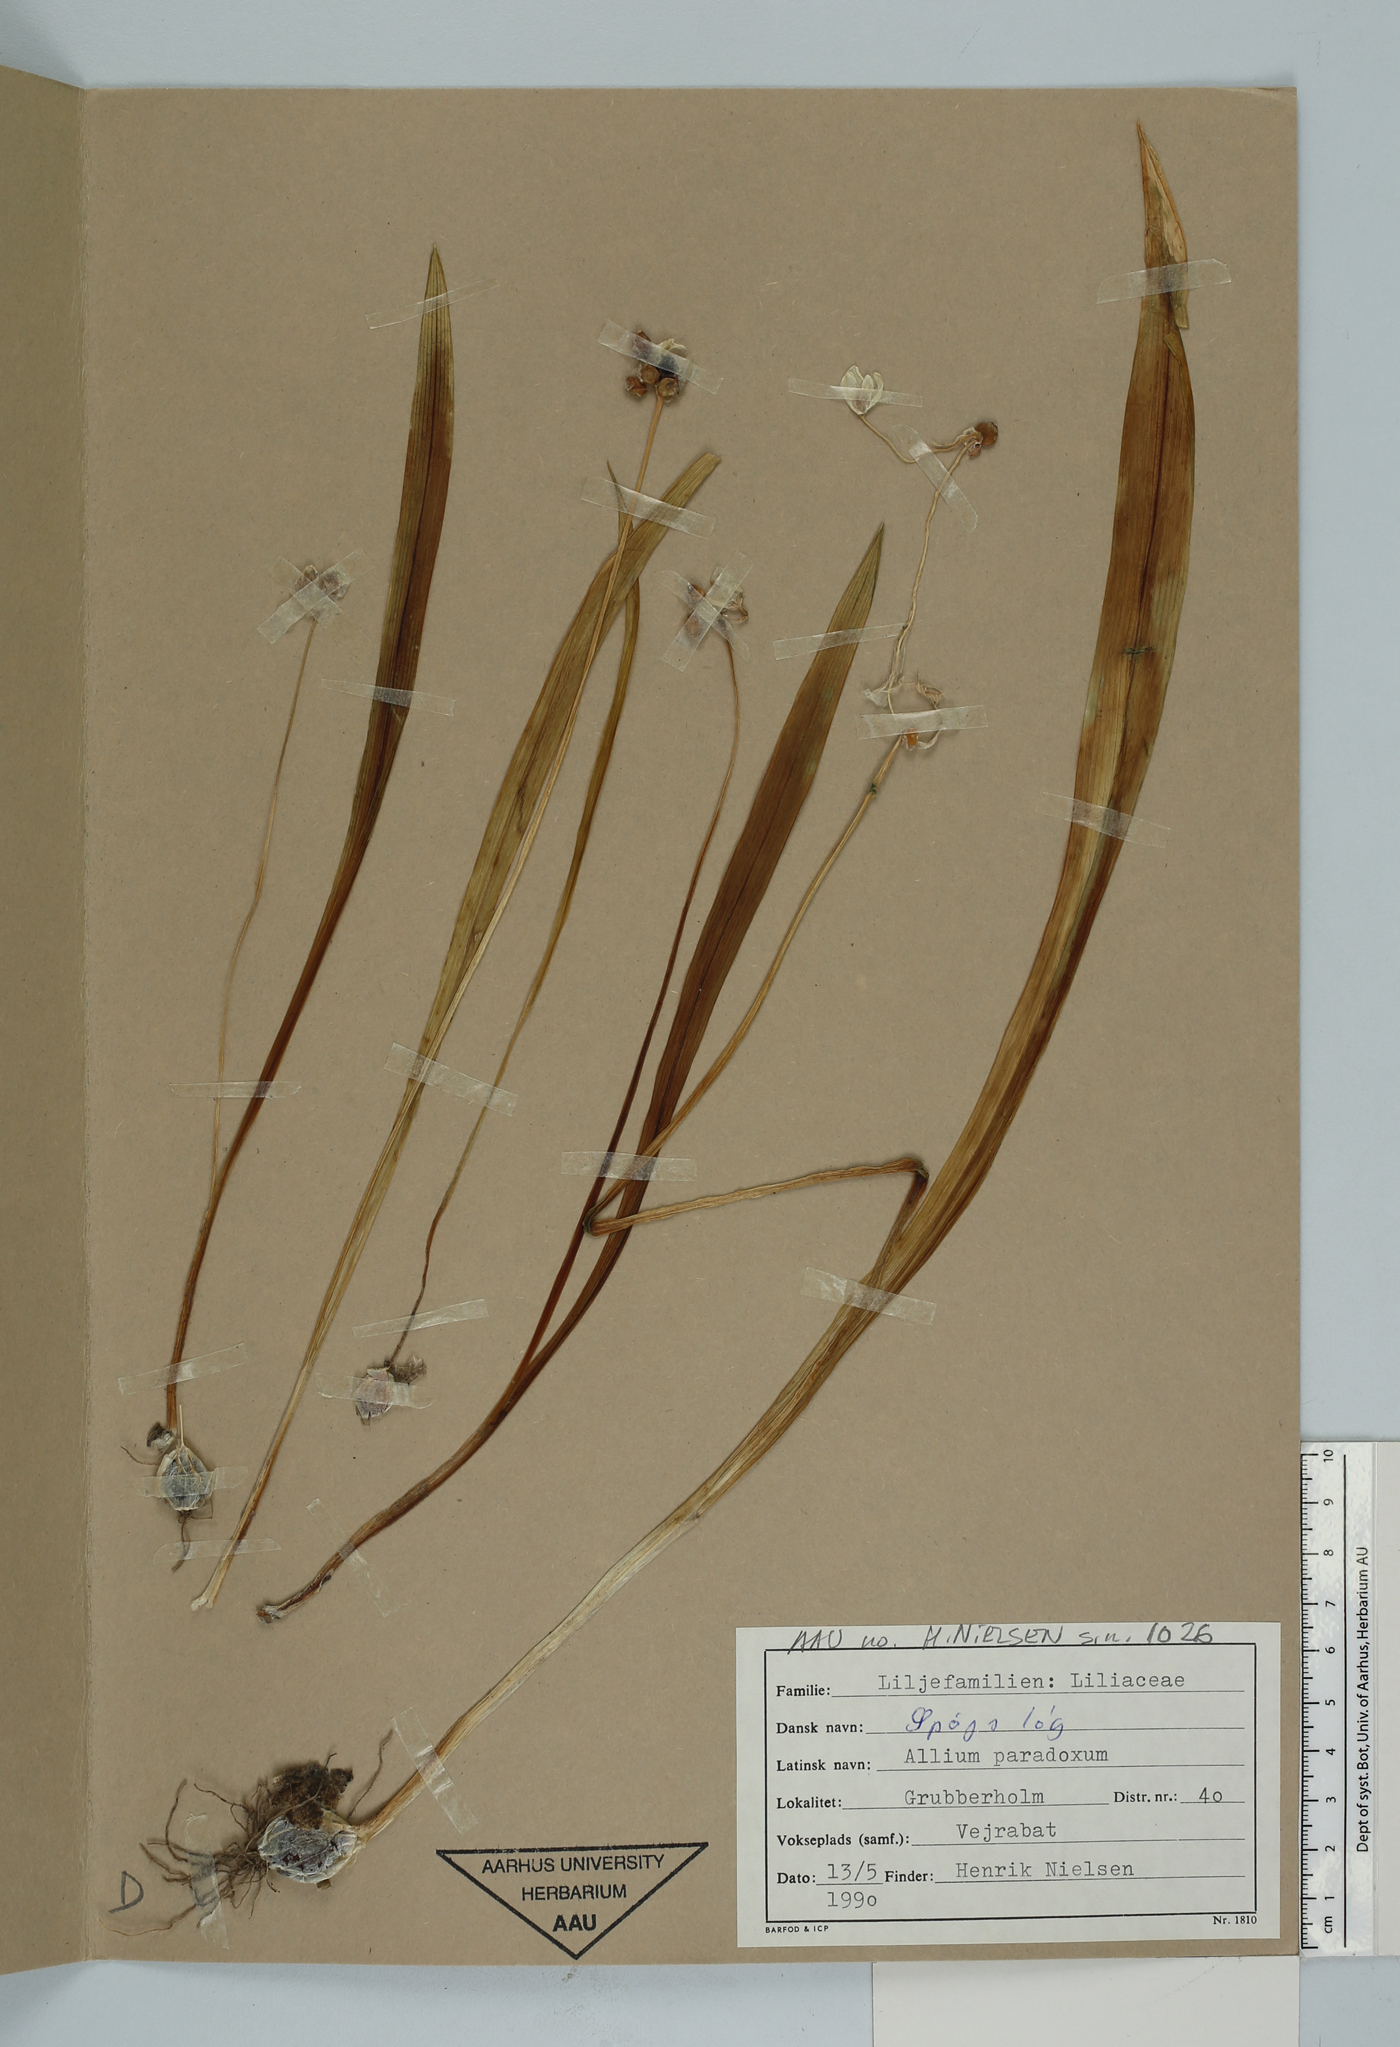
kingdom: Plantae
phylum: Tracheophyta
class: Liliopsida
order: Asparagales
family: Amaryllidaceae
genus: Allium
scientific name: Allium paradoxum
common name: Few-flowered garlic
